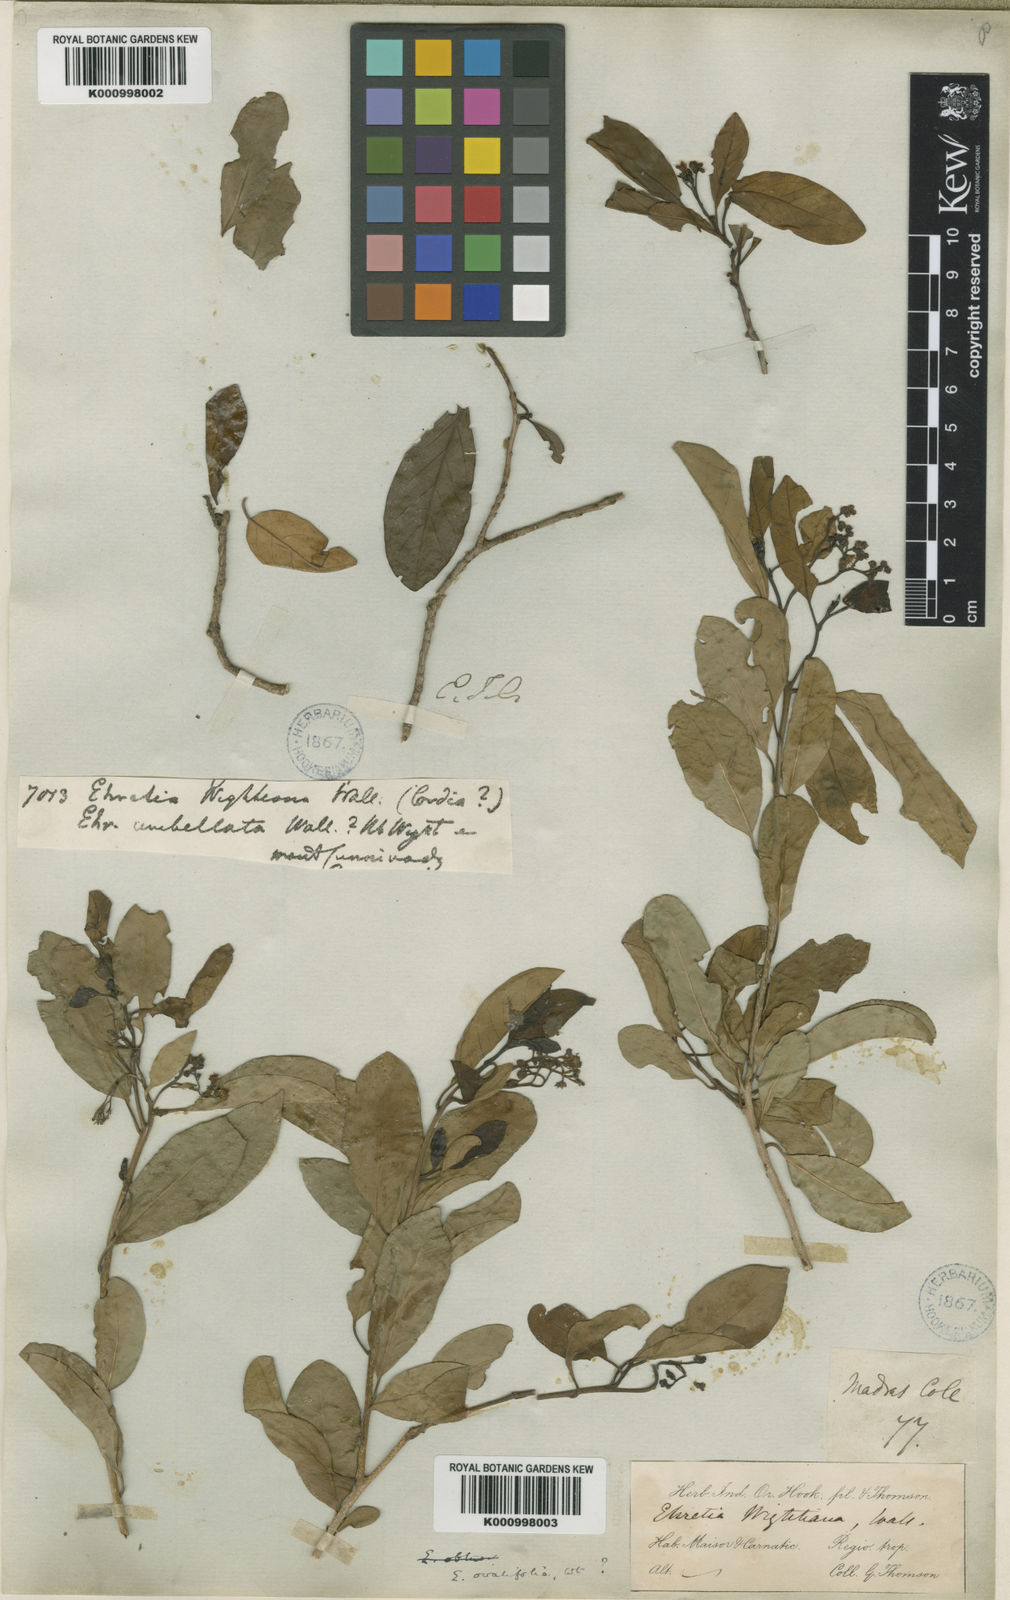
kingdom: Plantae
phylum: Tracheophyta
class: Magnoliopsida
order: Boraginales
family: Ehretiaceae
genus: Ehretia
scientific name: Ehretia
